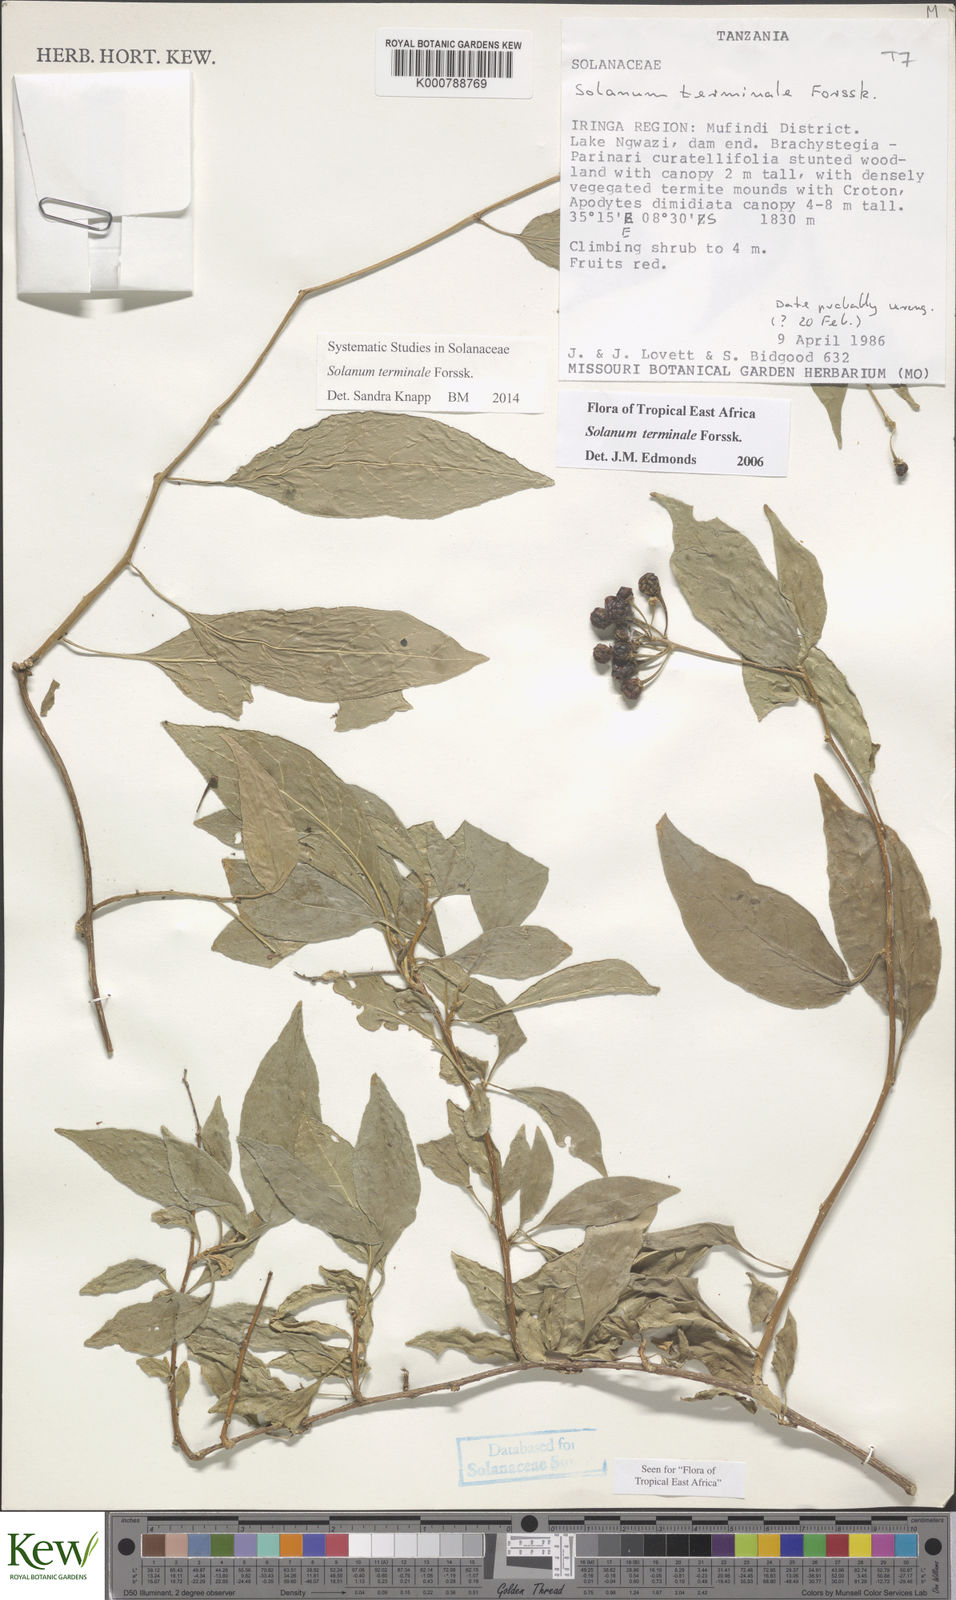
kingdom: Plantae
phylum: Tracheophyta
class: Magnoliopsida
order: Solanales
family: Solanaceae
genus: Solanum
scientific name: Solanum terminale
